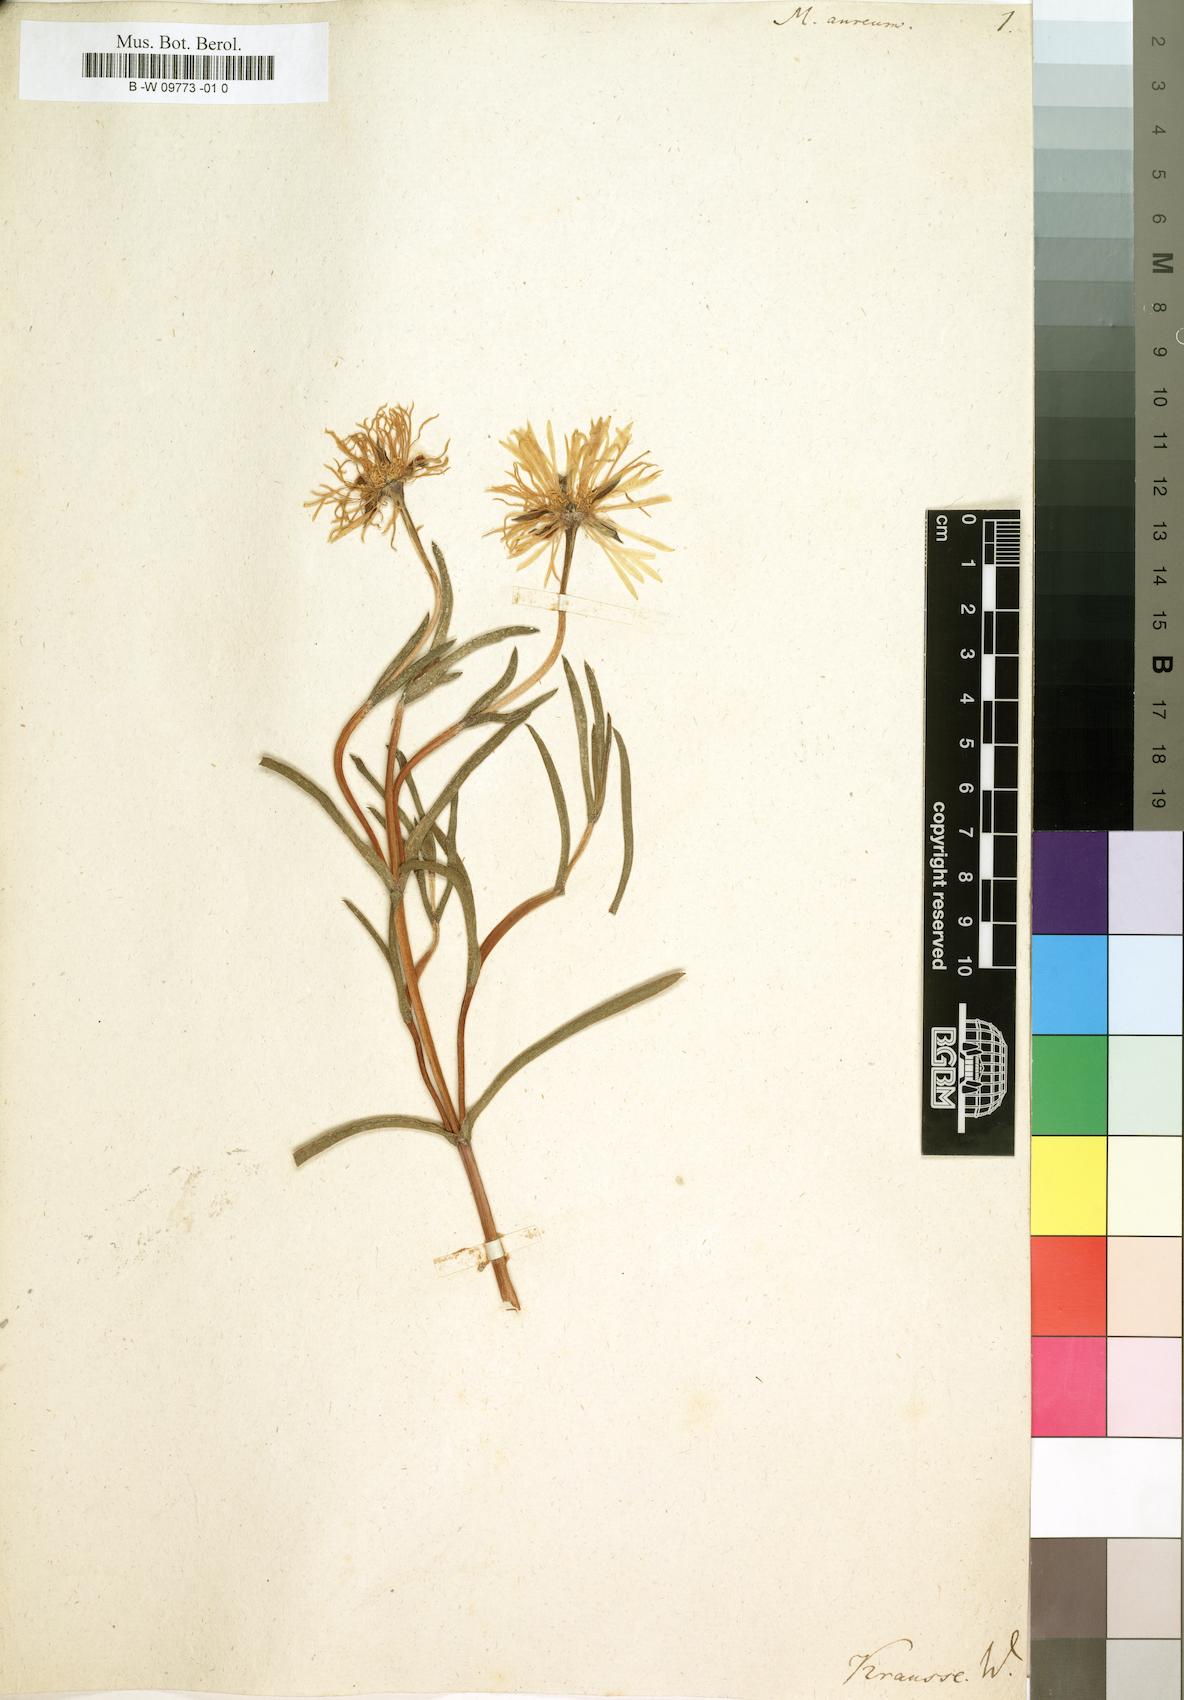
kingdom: Plantae
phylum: Tracheophyta
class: Magnoliopsida
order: Caryophyllales
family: Aizoaceae
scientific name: Aizoaceae
